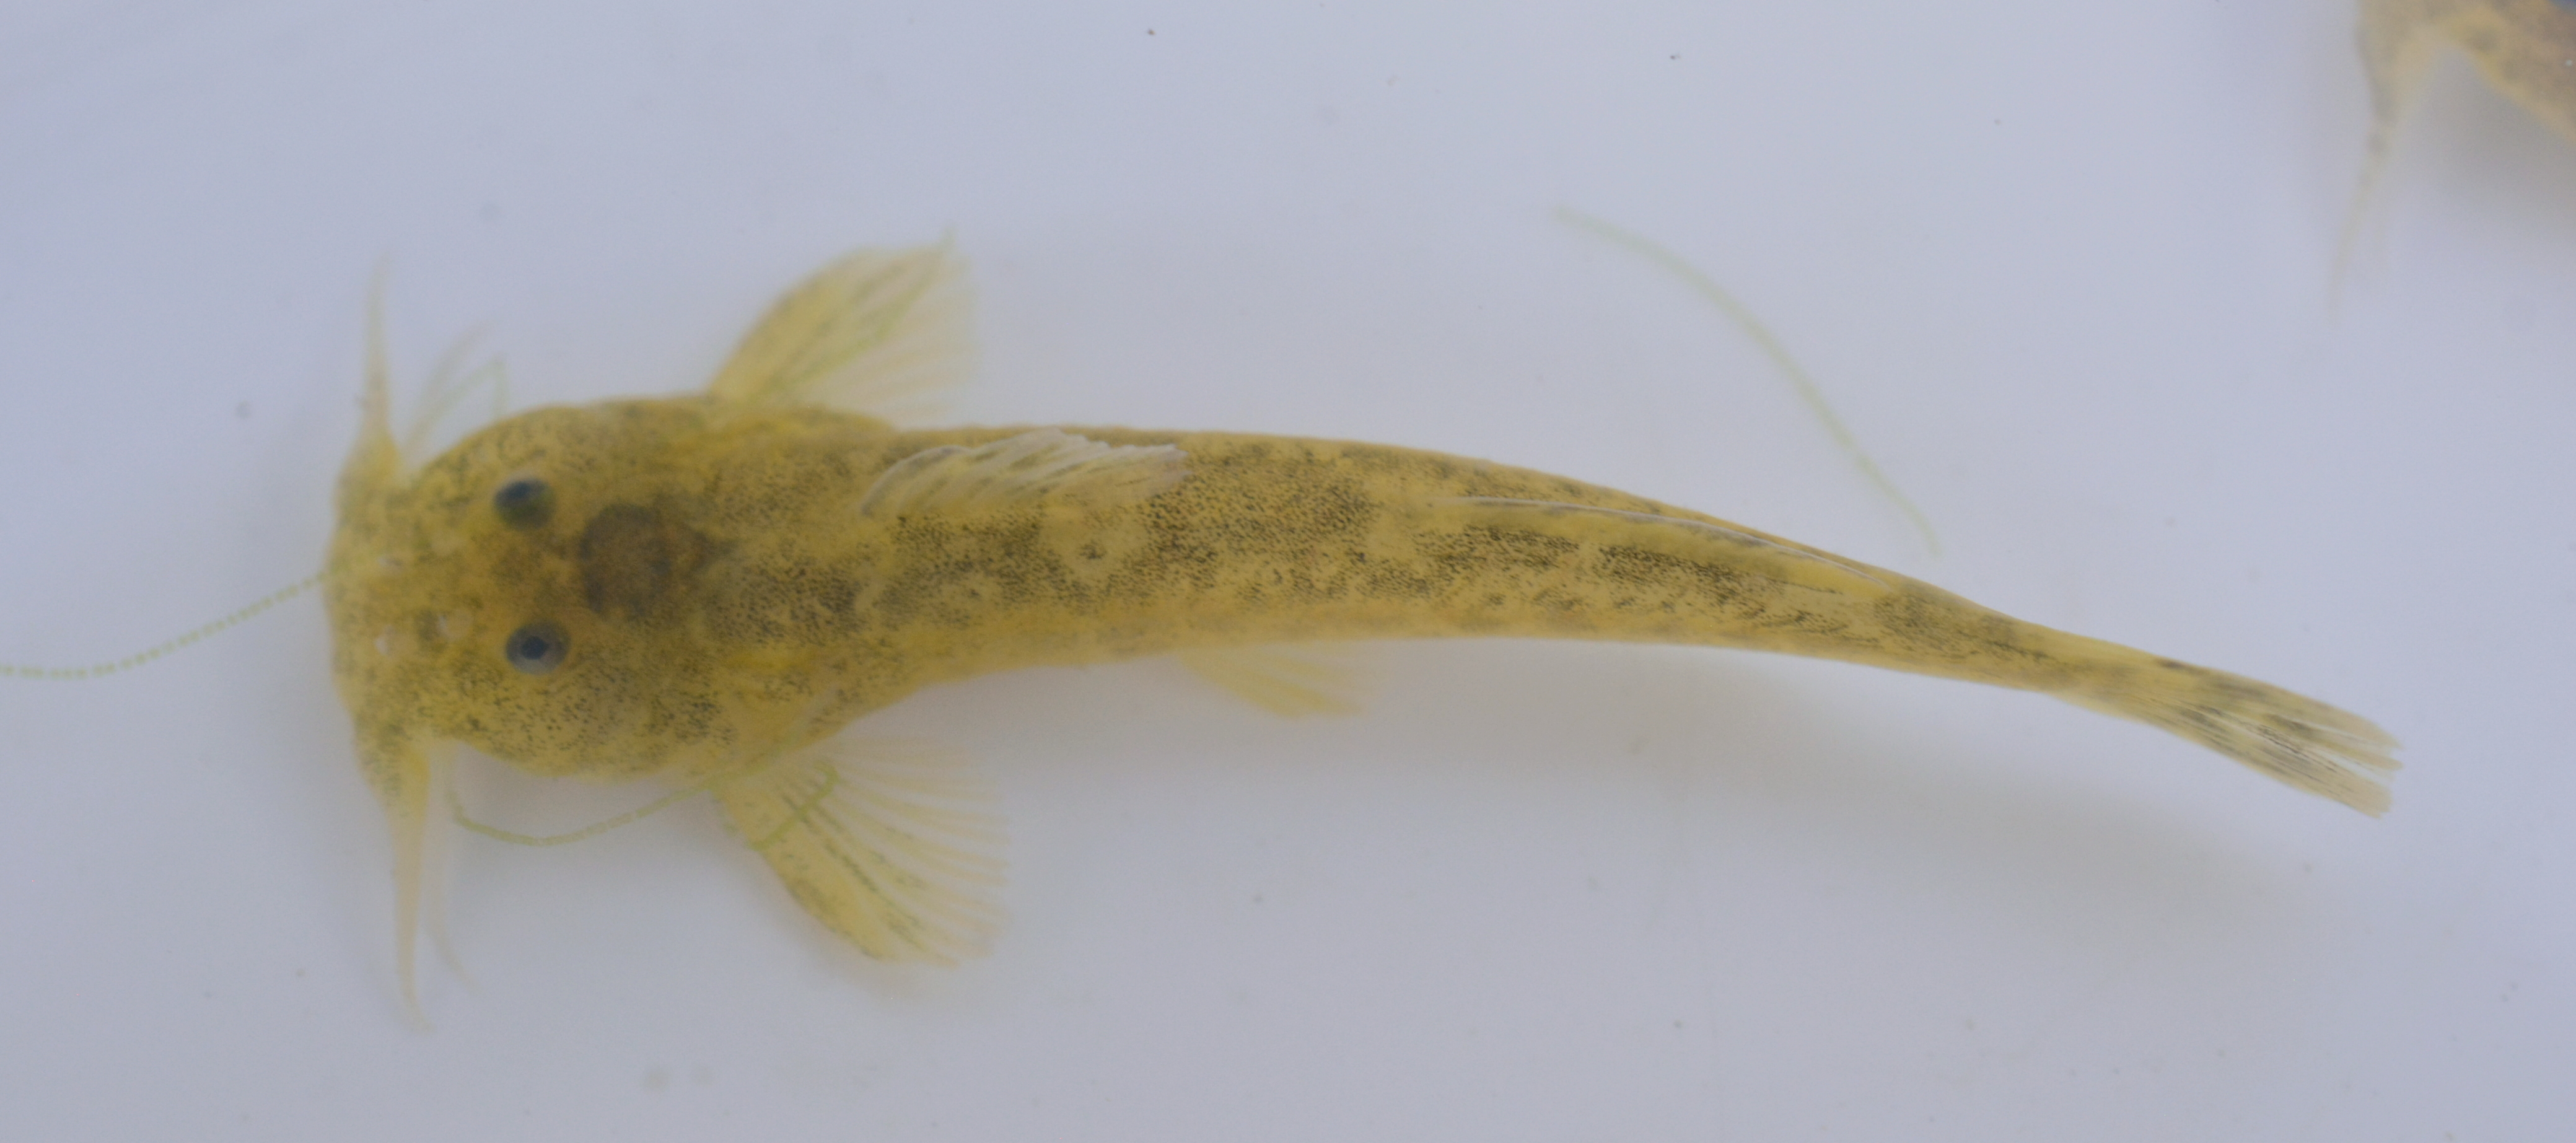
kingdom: Animalia
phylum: Chordata
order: Siluriformes
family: Amphiliidae
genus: Zaireichthys
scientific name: Zaireichthys kavangoensis
